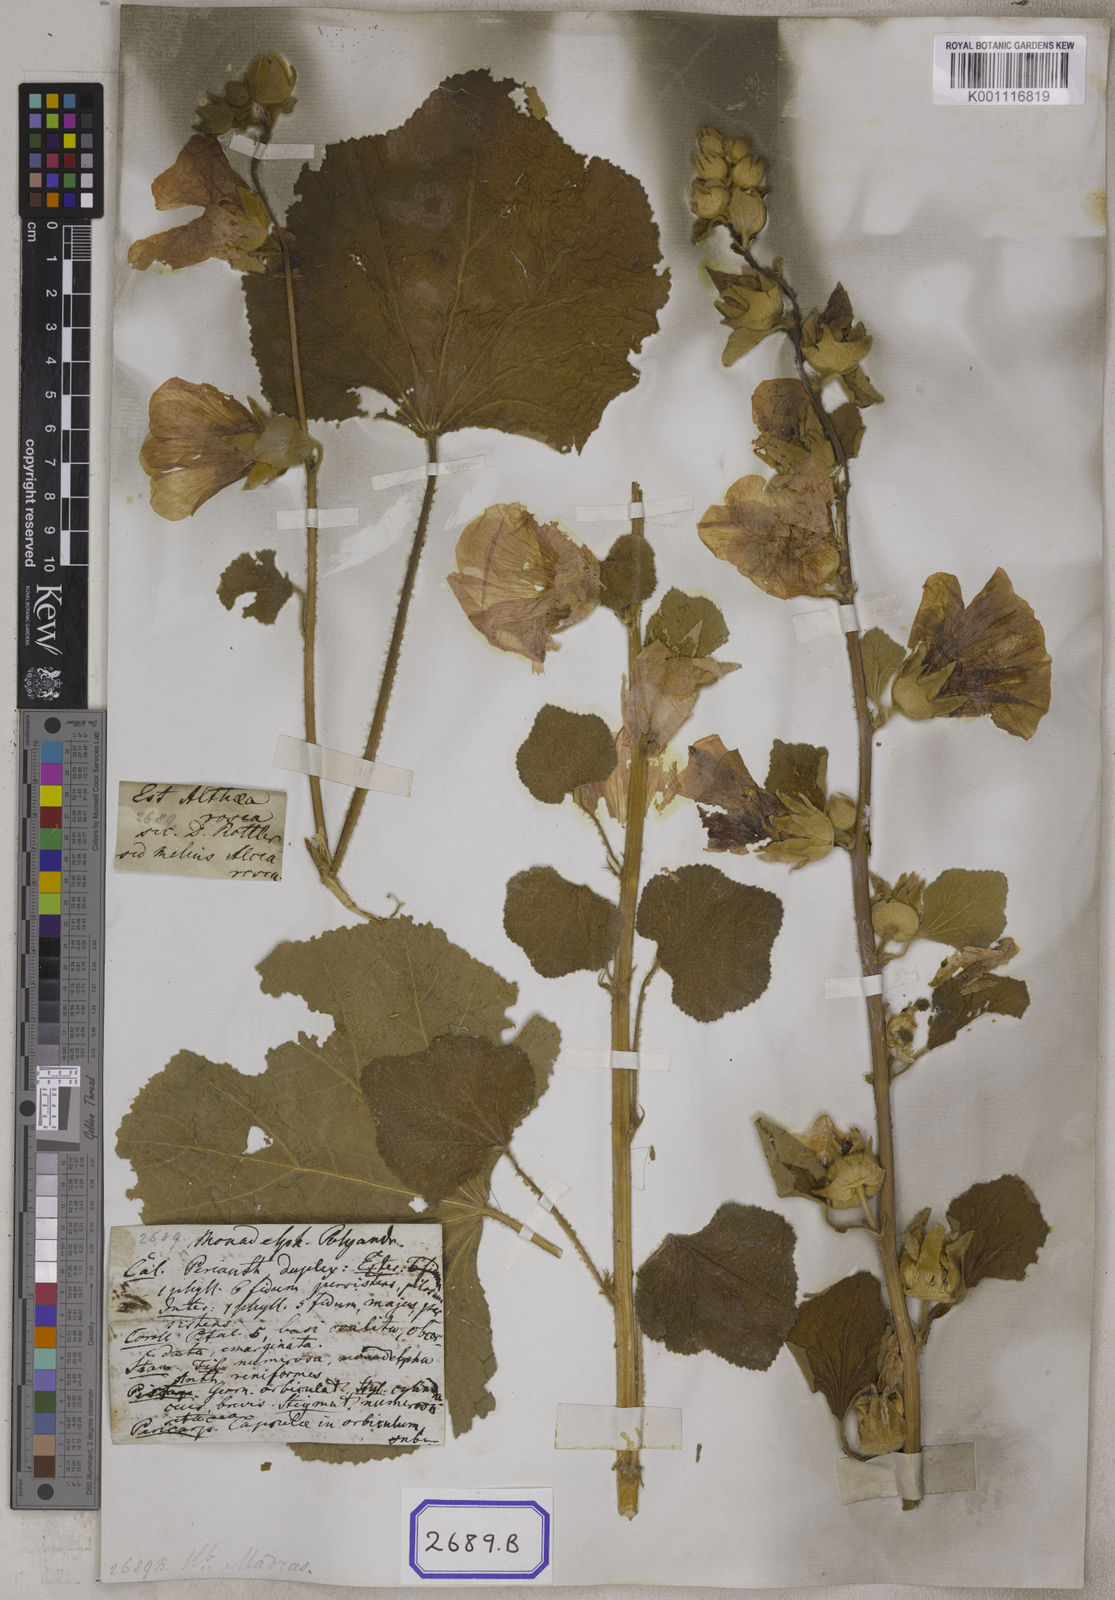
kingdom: Plantae
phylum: Tracheophyta
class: Magnoliopsida
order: Malvales
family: Malvaceae
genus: Alcea
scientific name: Alcea rosea
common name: Hollyhock
